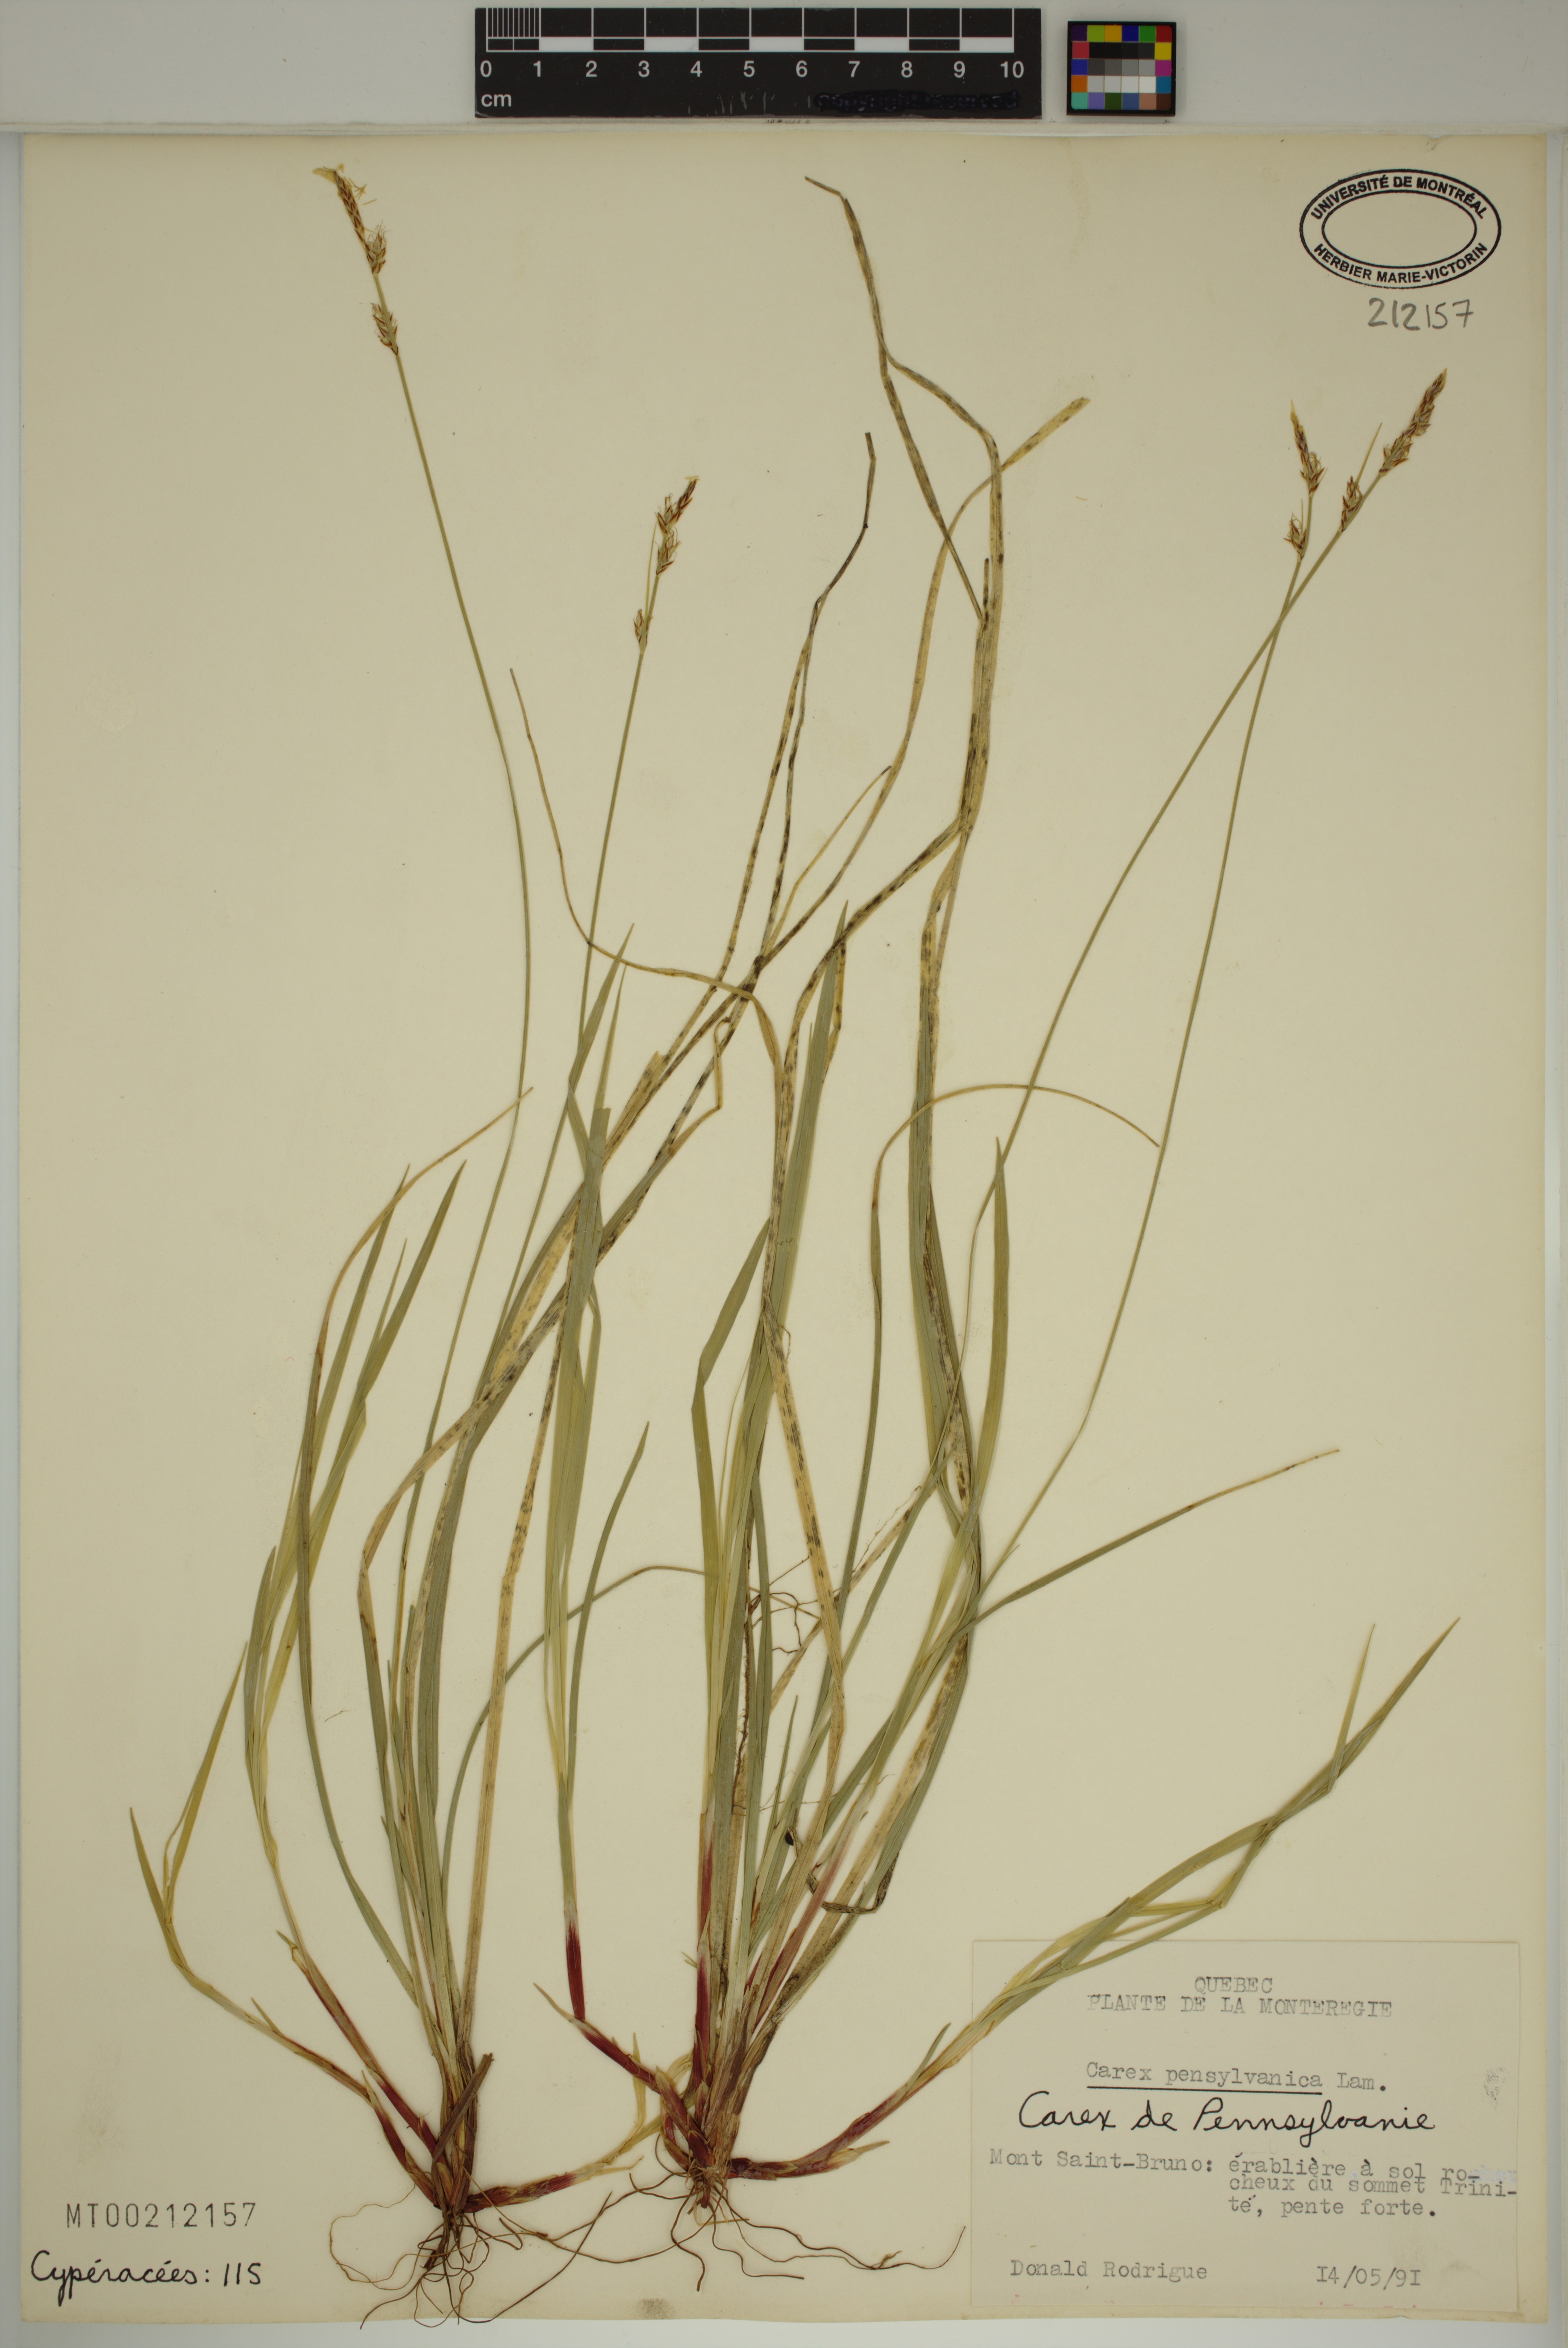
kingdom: Plantae
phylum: Tracheophyta
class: Liliopsida
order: Poales
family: Cyperaceae
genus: Carex
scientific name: Carex pensylvanica
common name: Common oak sedge
